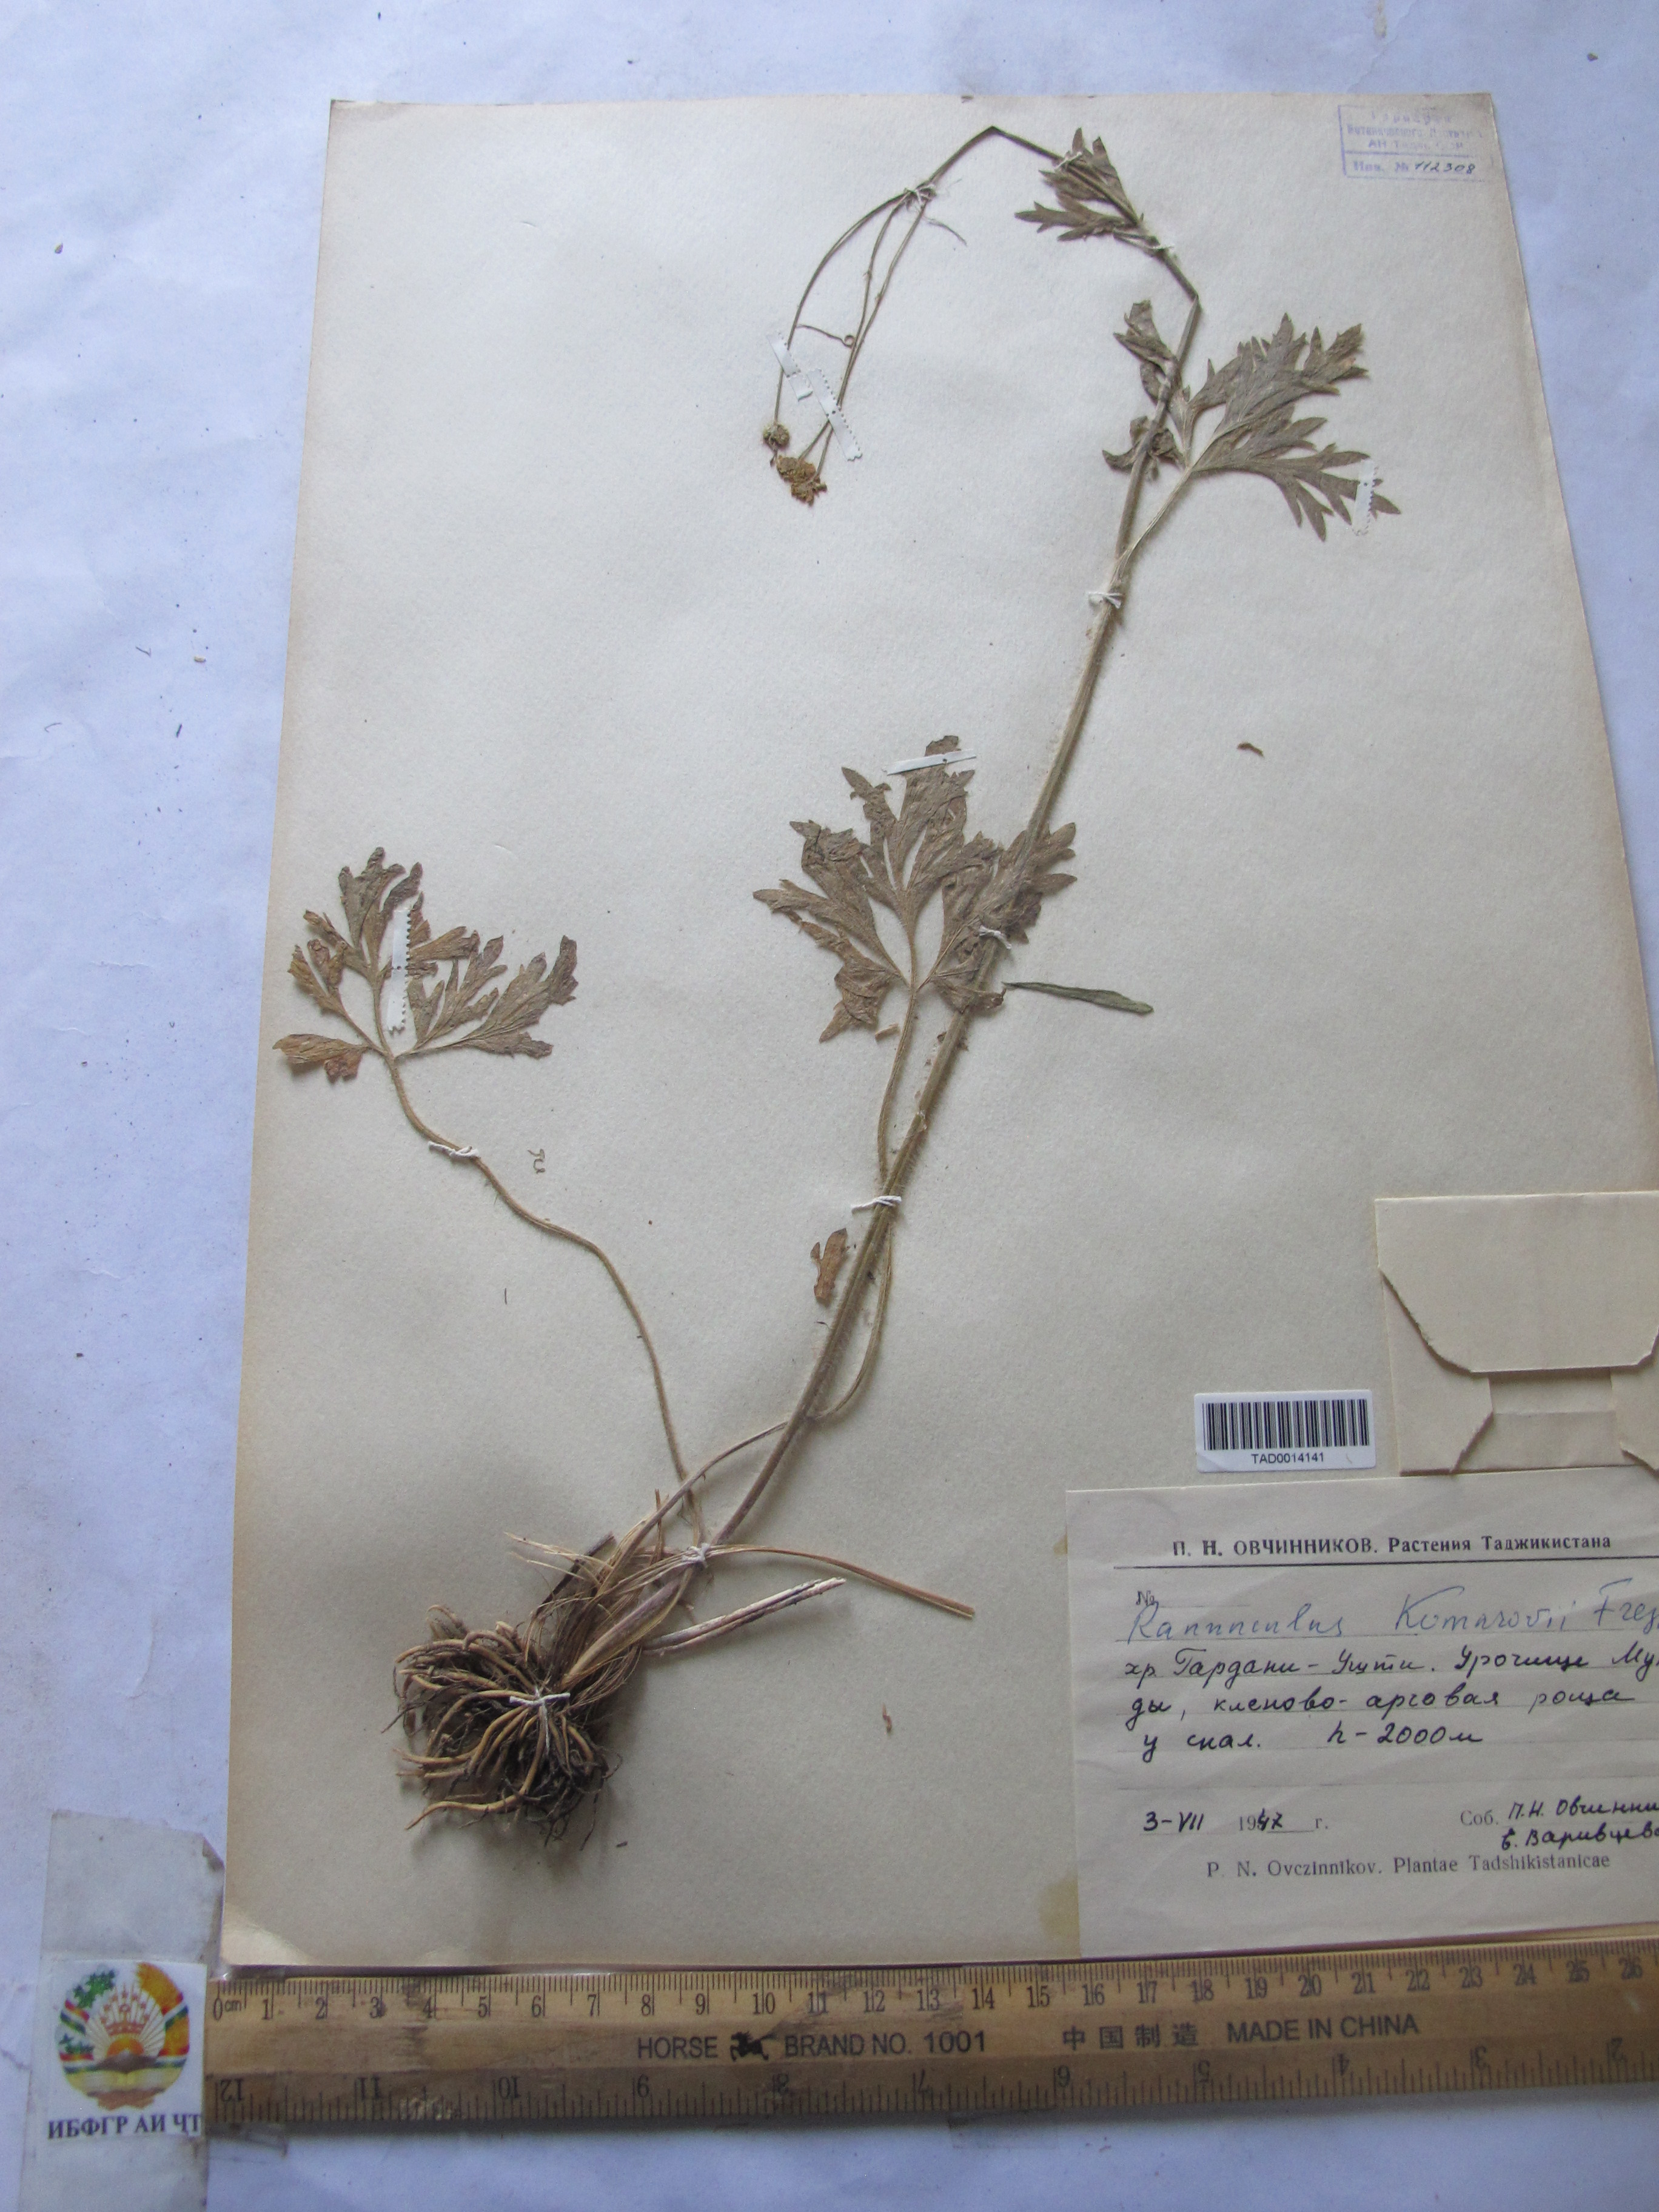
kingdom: Plantae
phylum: Tracheophyta
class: Magnoliopsida
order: Ranunculales
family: Ranunculaceae
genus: Ranunculus
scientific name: Ranunculus komarovii
